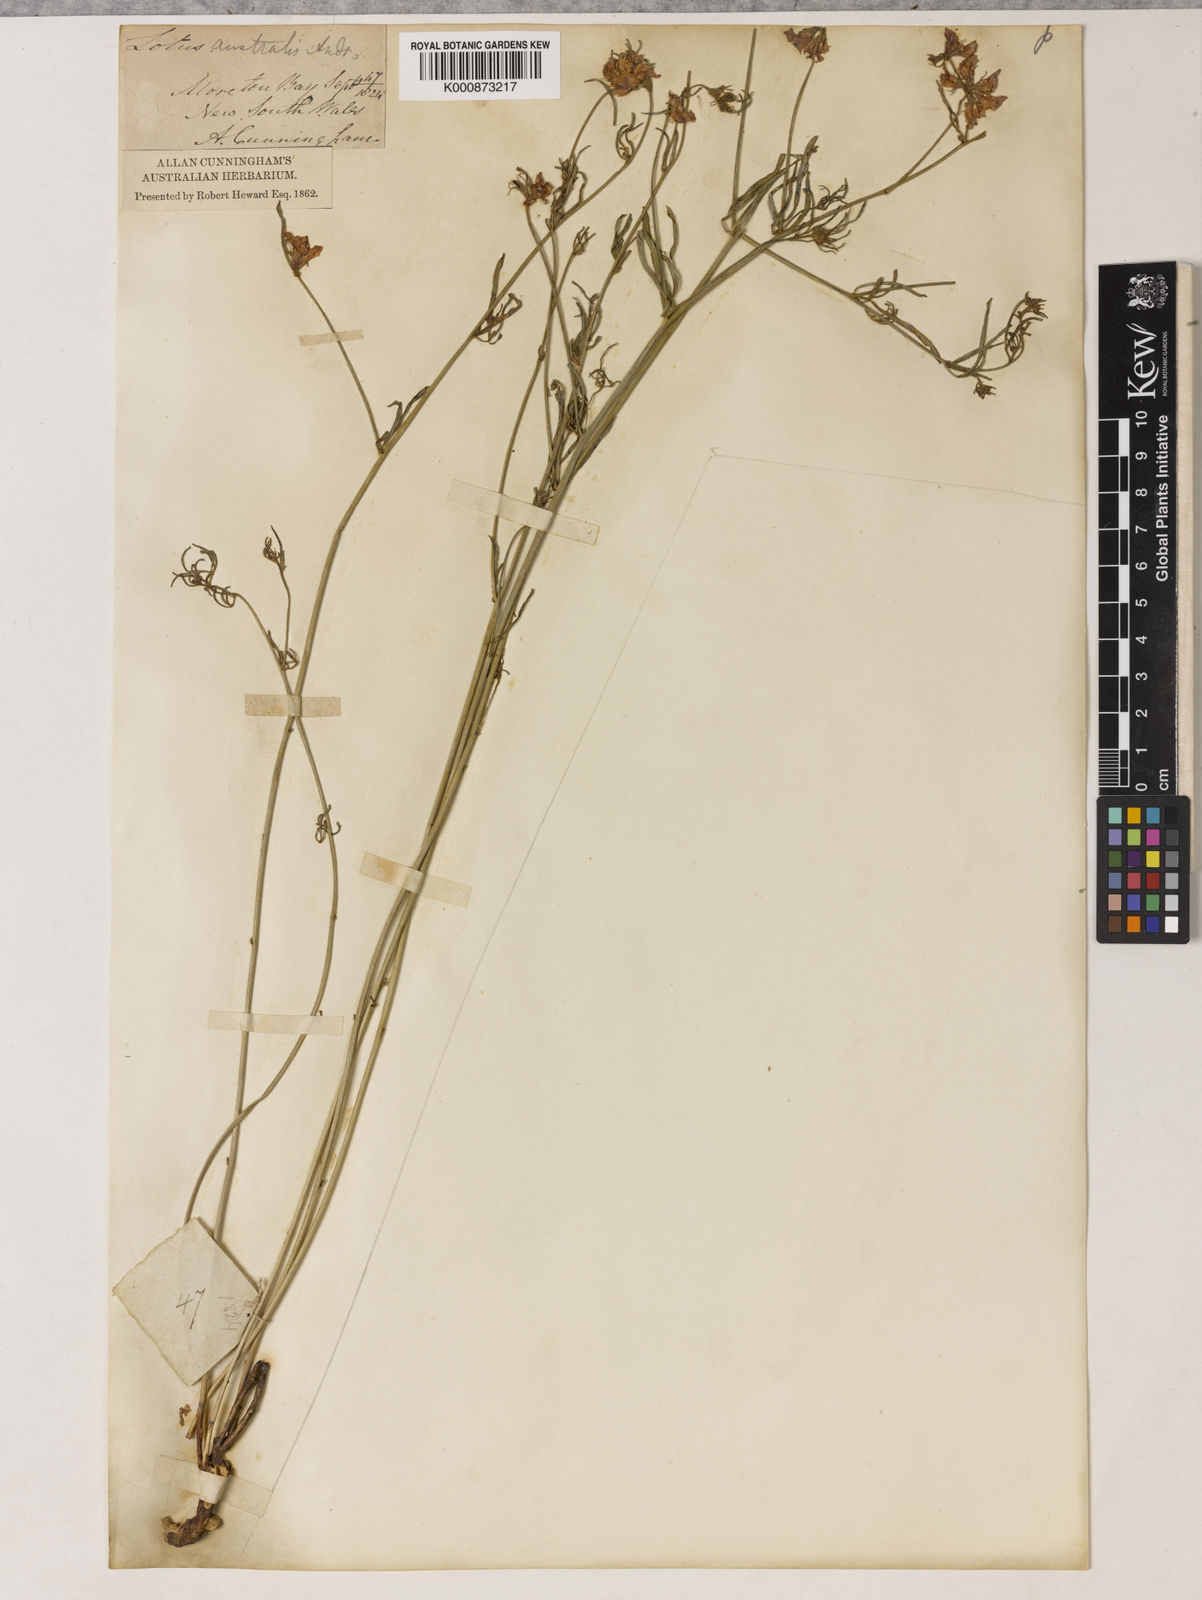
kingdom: Plantae
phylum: Tracheophyta
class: Magnoliopsida
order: Fabales
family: Fabaceae
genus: Lotus
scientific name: Lotus australis
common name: Australian trefoil
